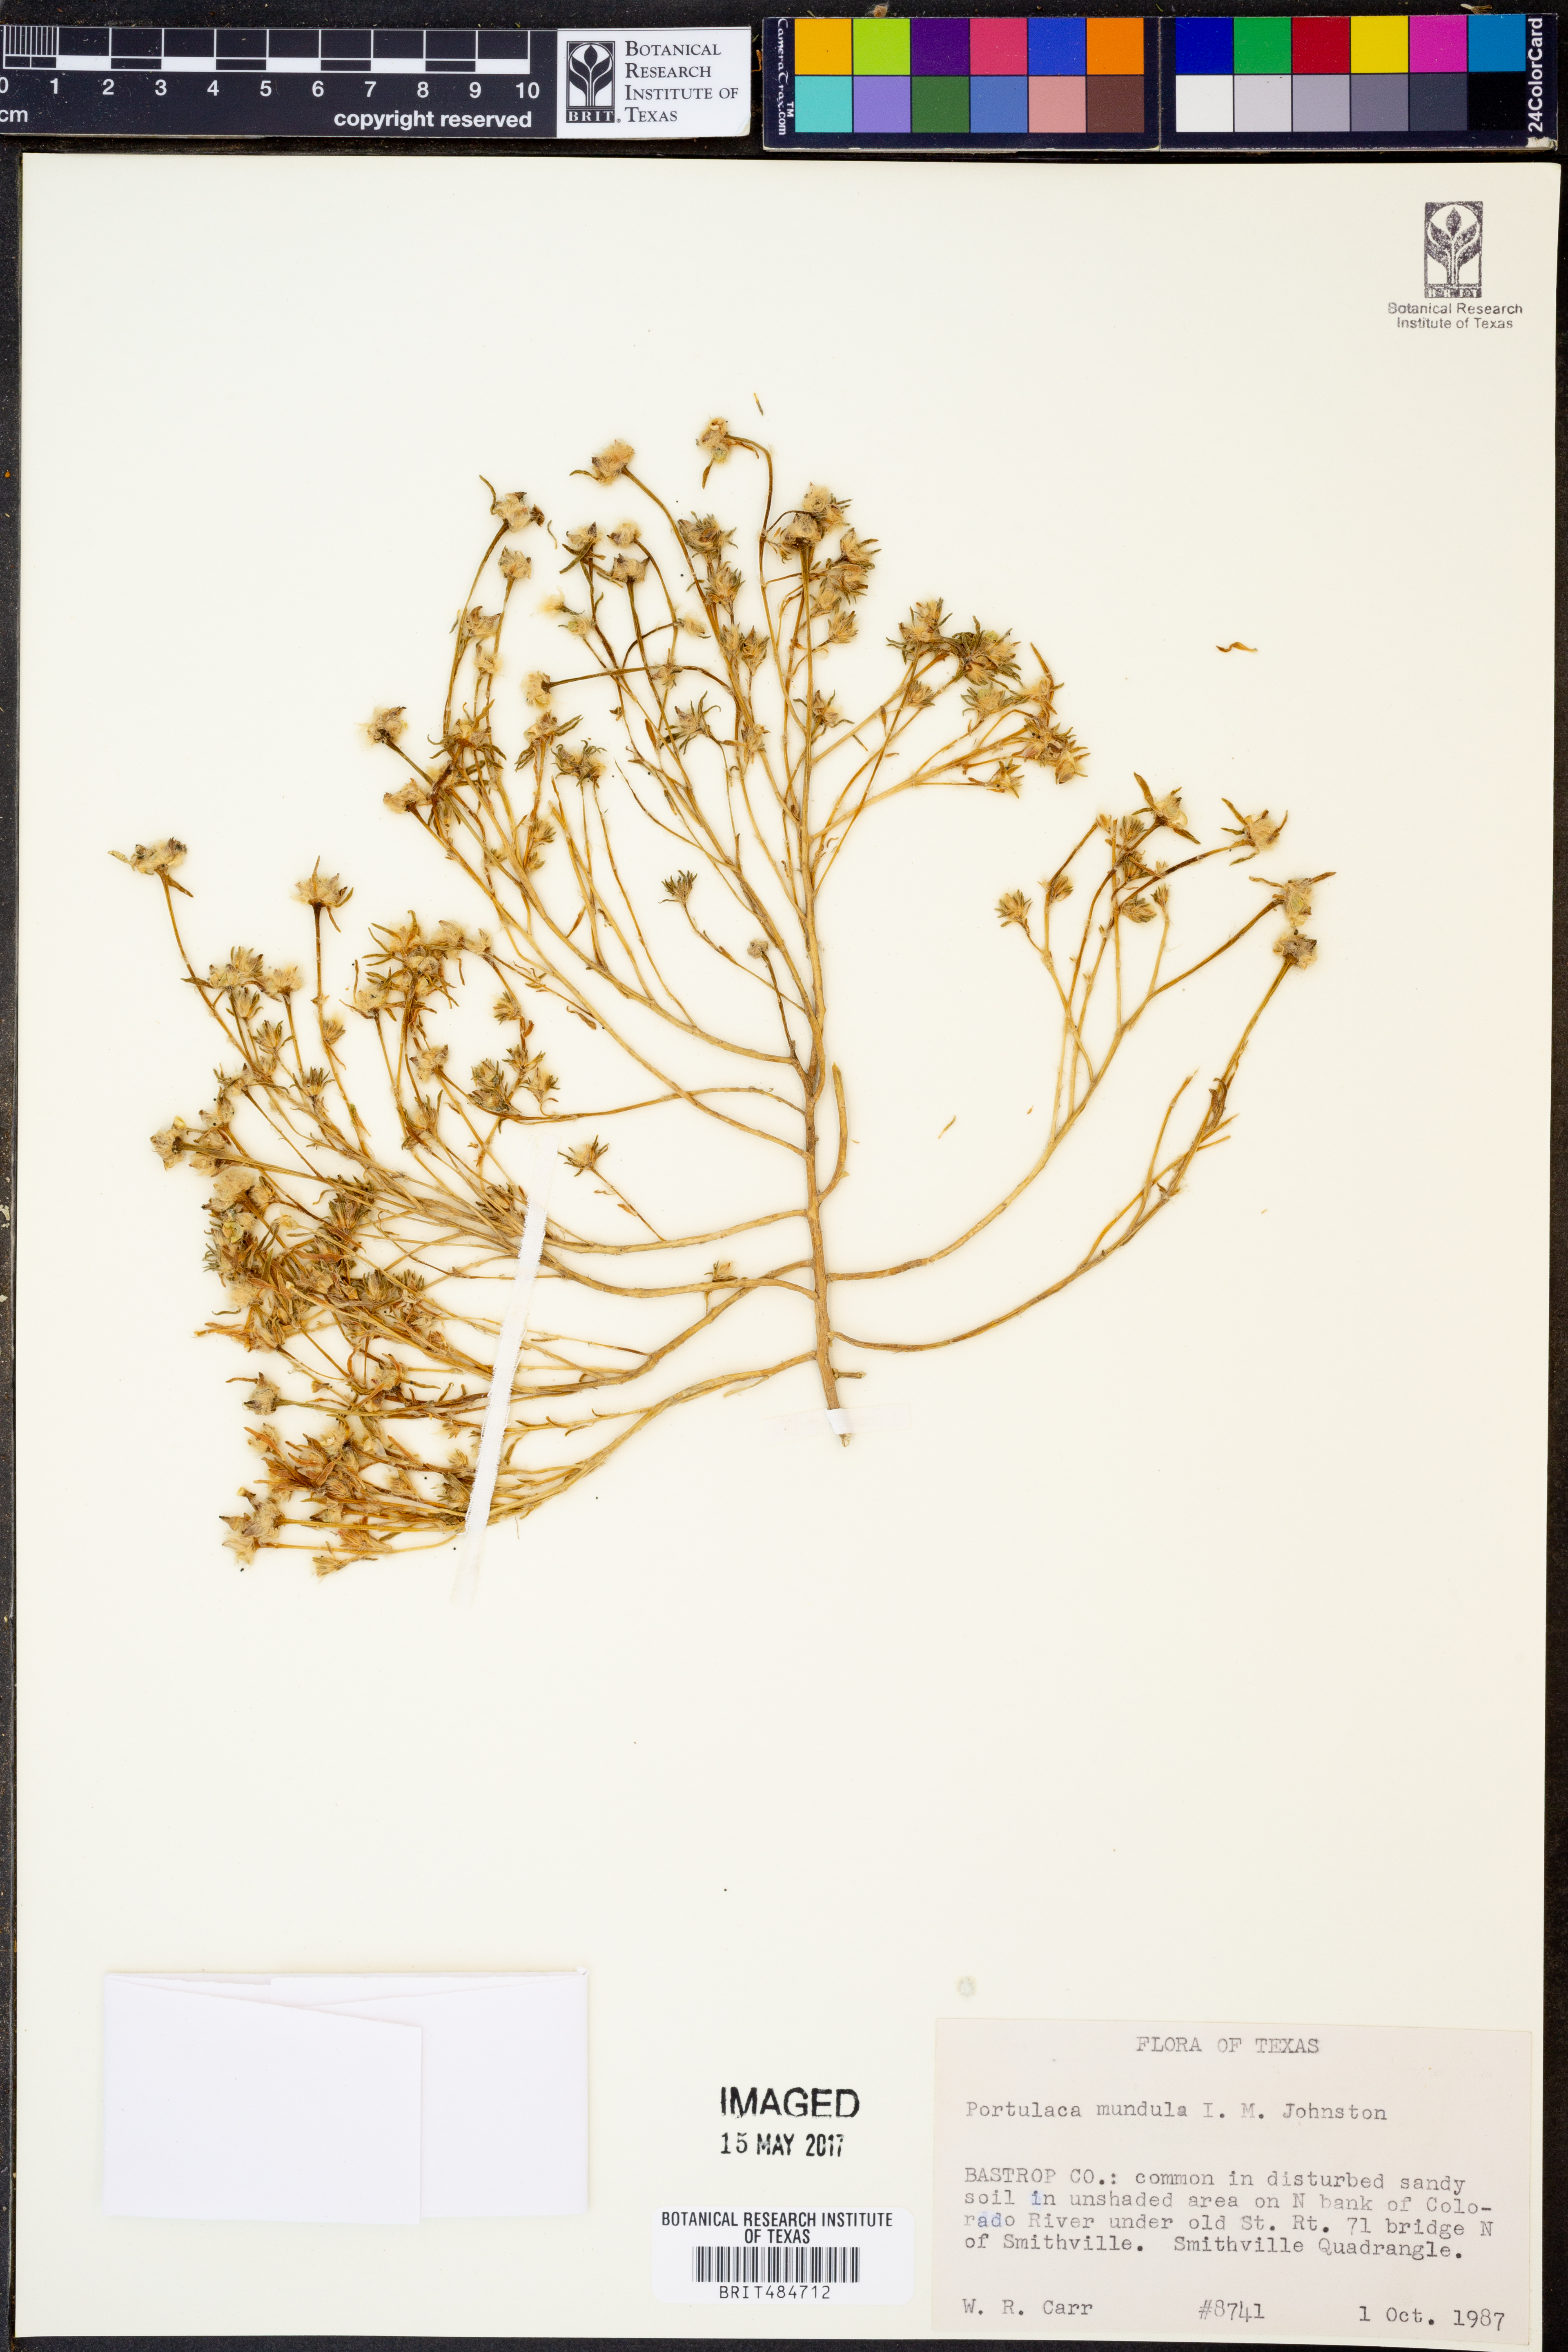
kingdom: Plantae
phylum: Tracheophyta
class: Magnoliopsida
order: Caryophyllales
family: Portulacaceae
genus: Portulaca
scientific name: Portulaca pilosa
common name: Kiss me quick
